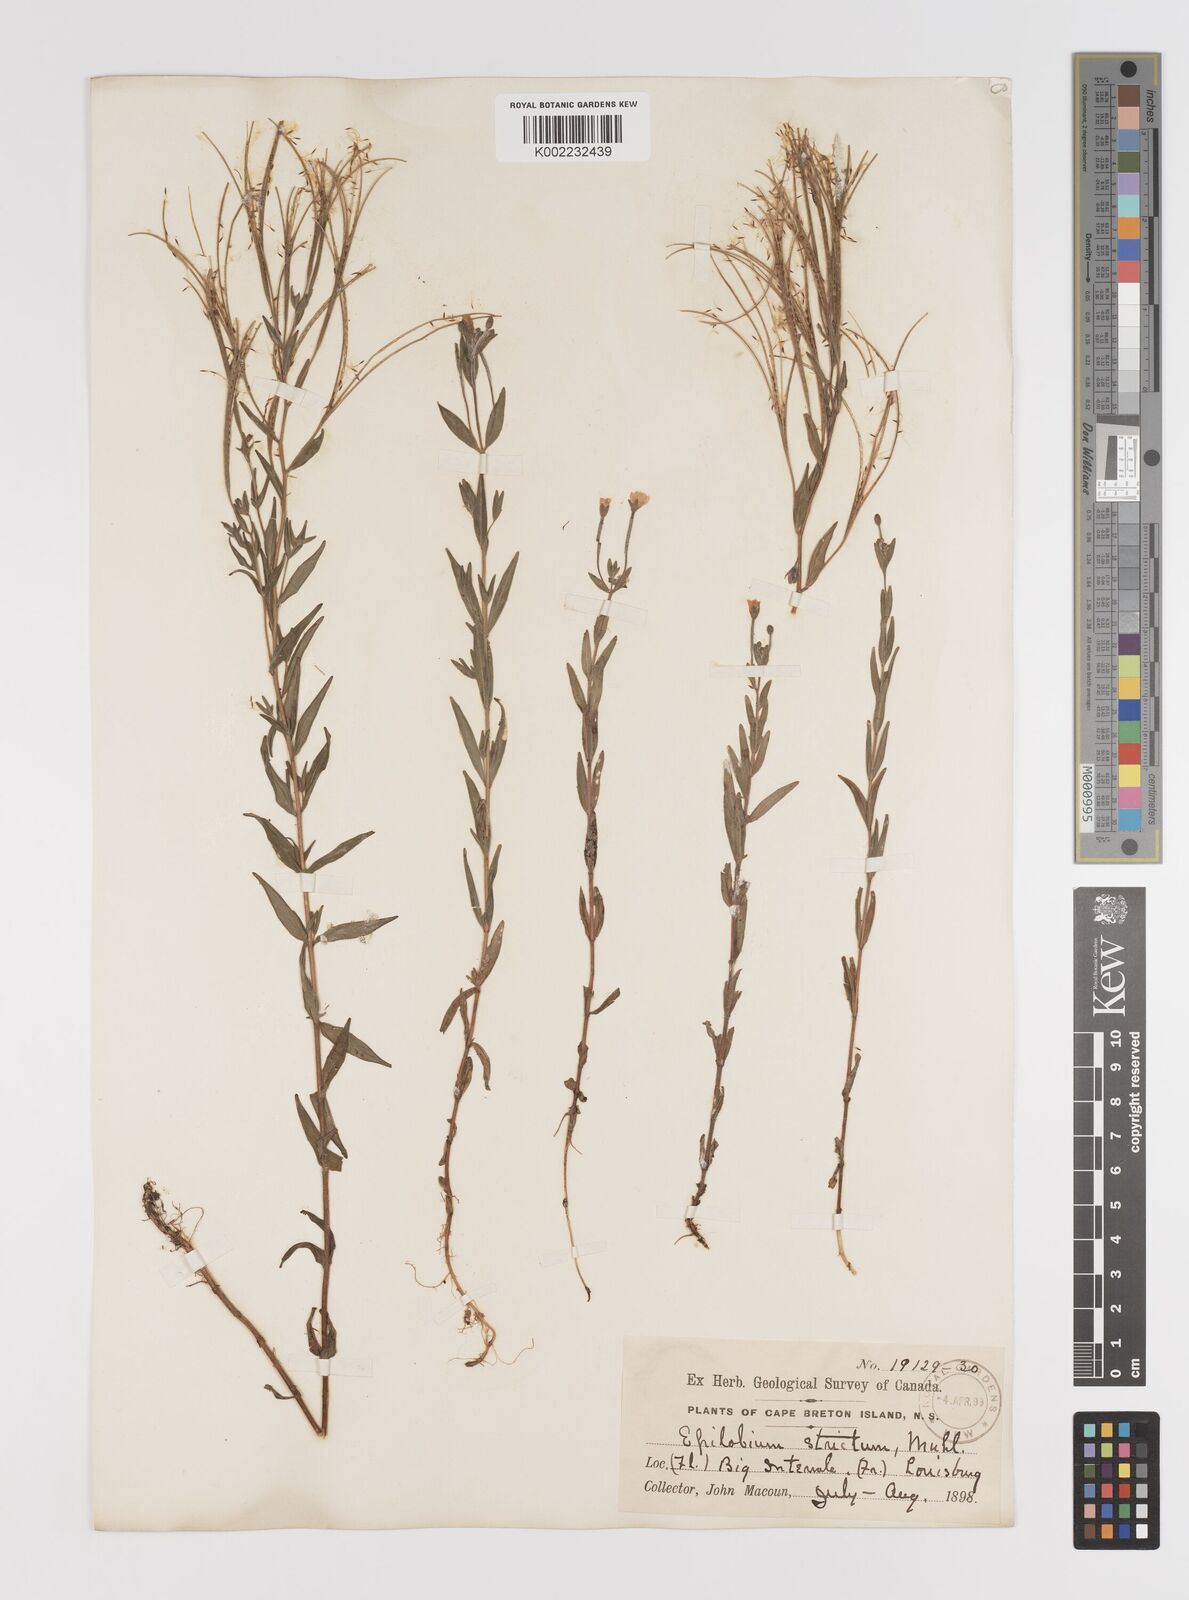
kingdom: Plantae
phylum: Tracheophyta
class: Magnoliopsida
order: Myrtales
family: Onagraceae
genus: Epilobium
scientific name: Epilobium densum
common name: Downy willowherb
